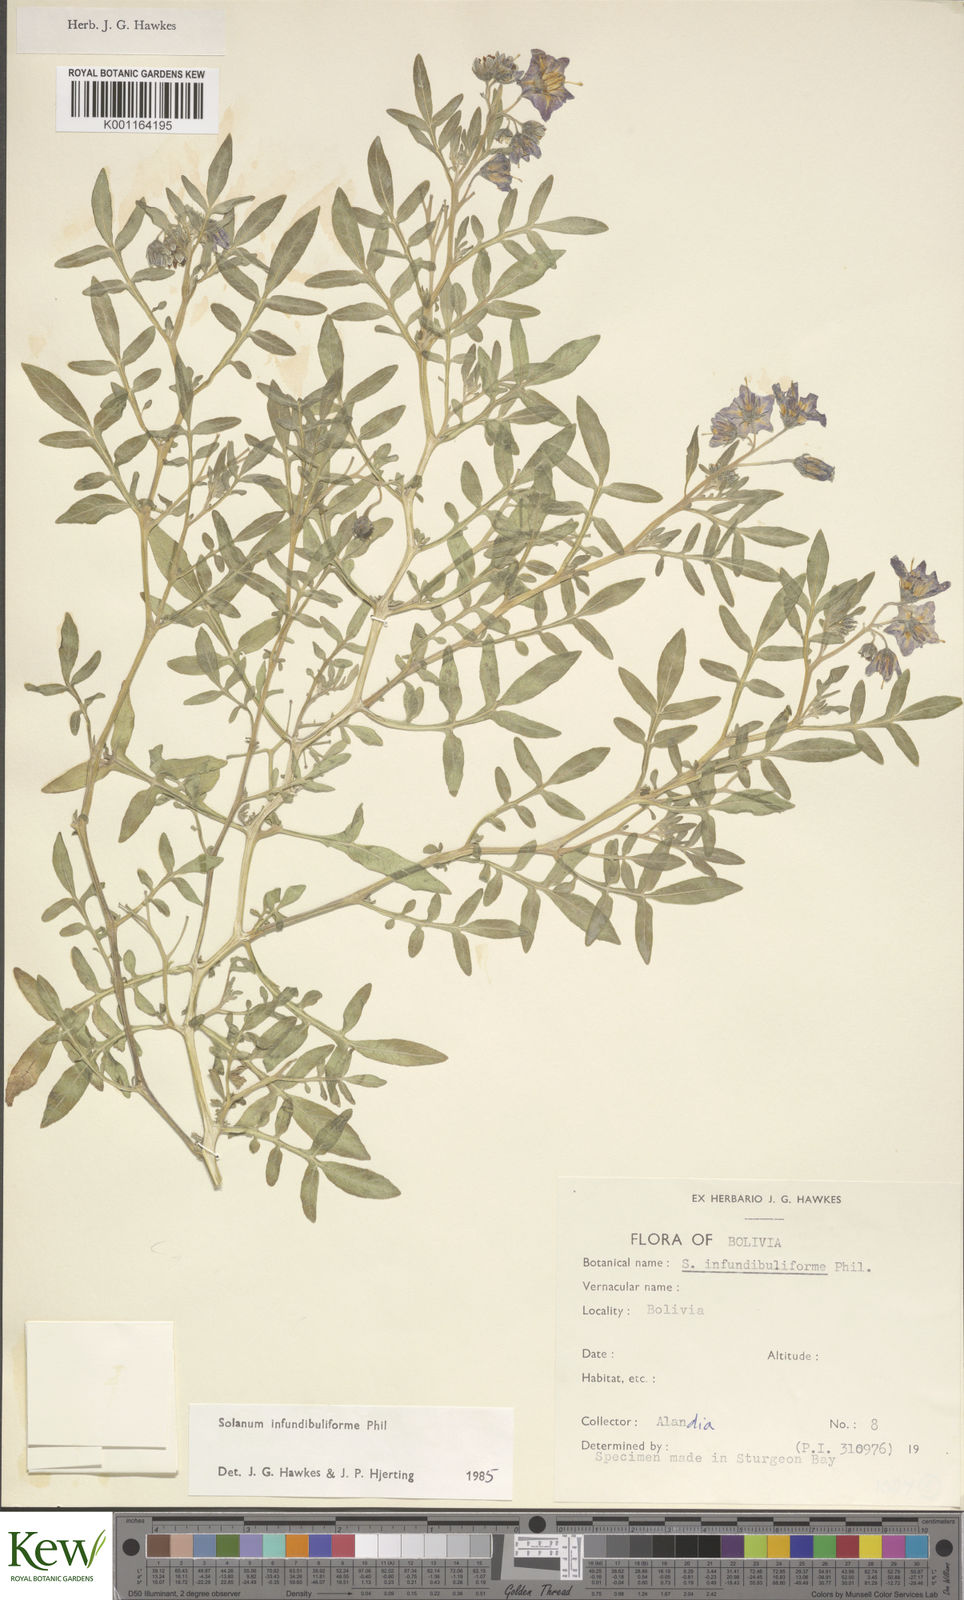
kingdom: Plantae
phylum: Tracheophyta
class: Magnoliopsida
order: Solanales
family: Solanaceae
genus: Solanum
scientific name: Solanum infundibuliforme
